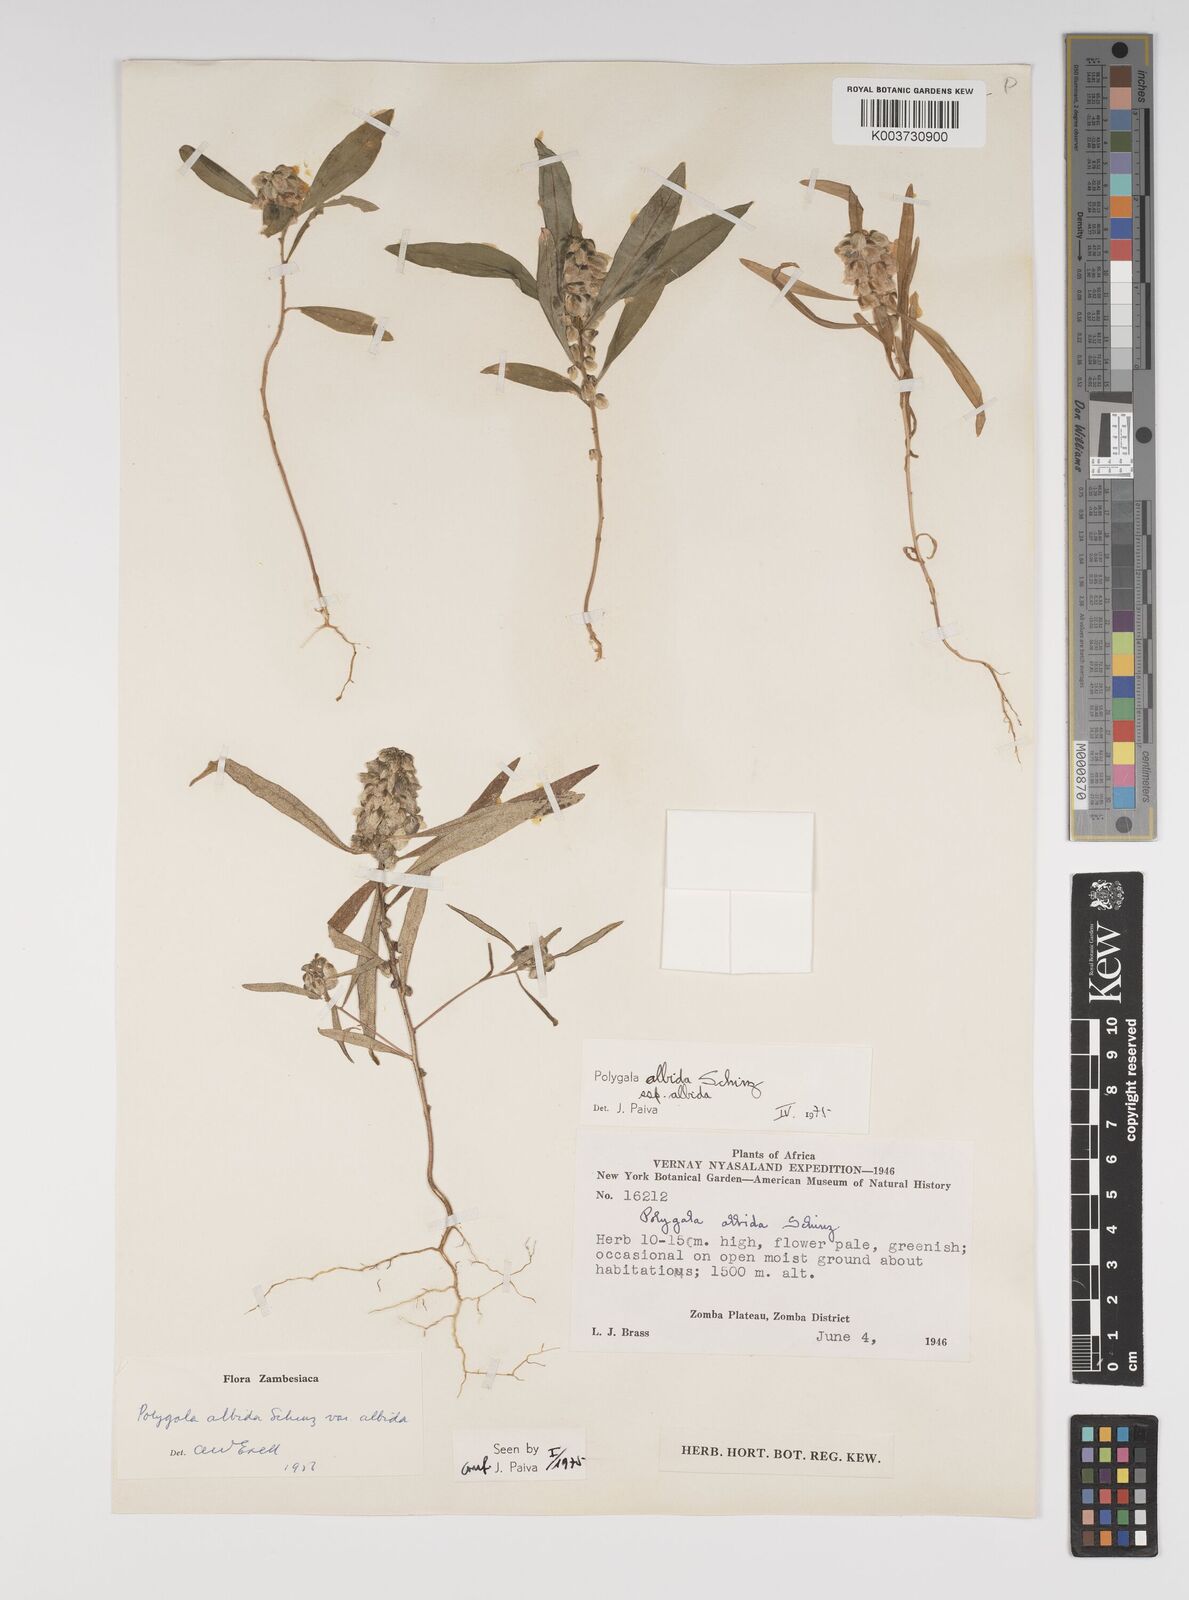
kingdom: Plantae
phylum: Tracheophyta
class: Magnoliopsida
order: Fabales
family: Polygalaceae
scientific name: Polygalaceae
